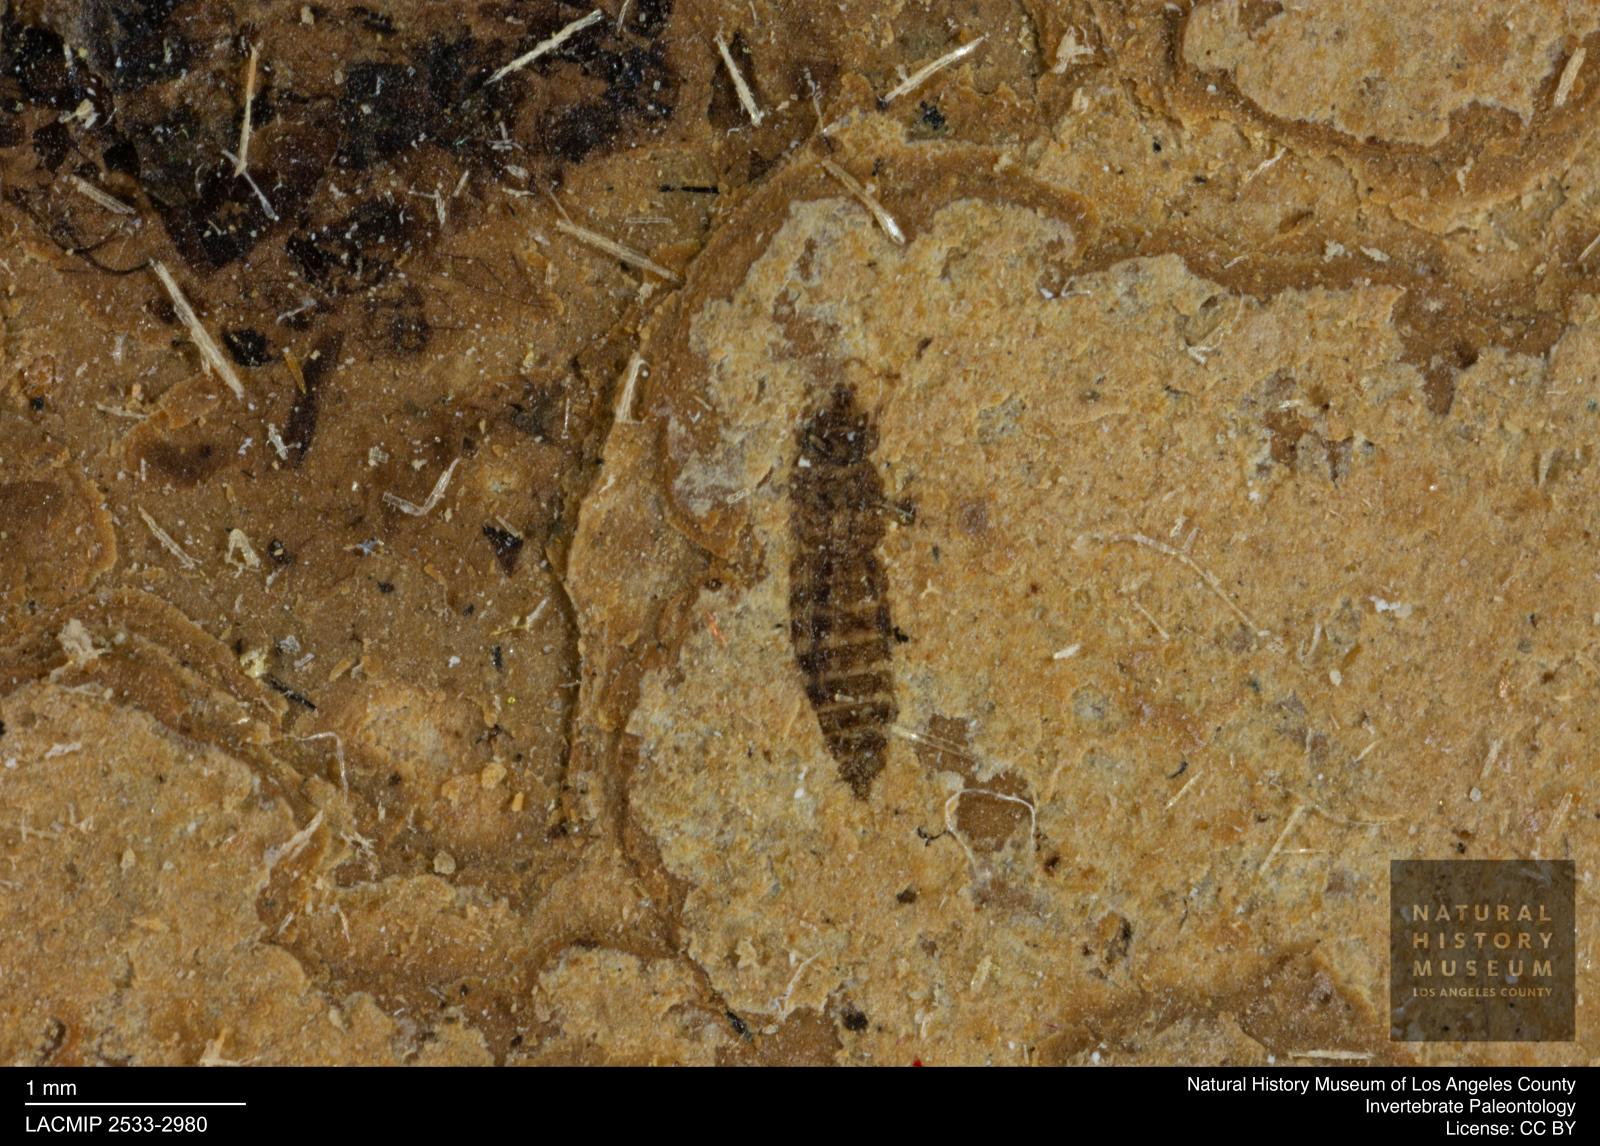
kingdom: Animalia
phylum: Arthropoda
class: Insecta
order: Thysanoptera
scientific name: Thysanoptera
